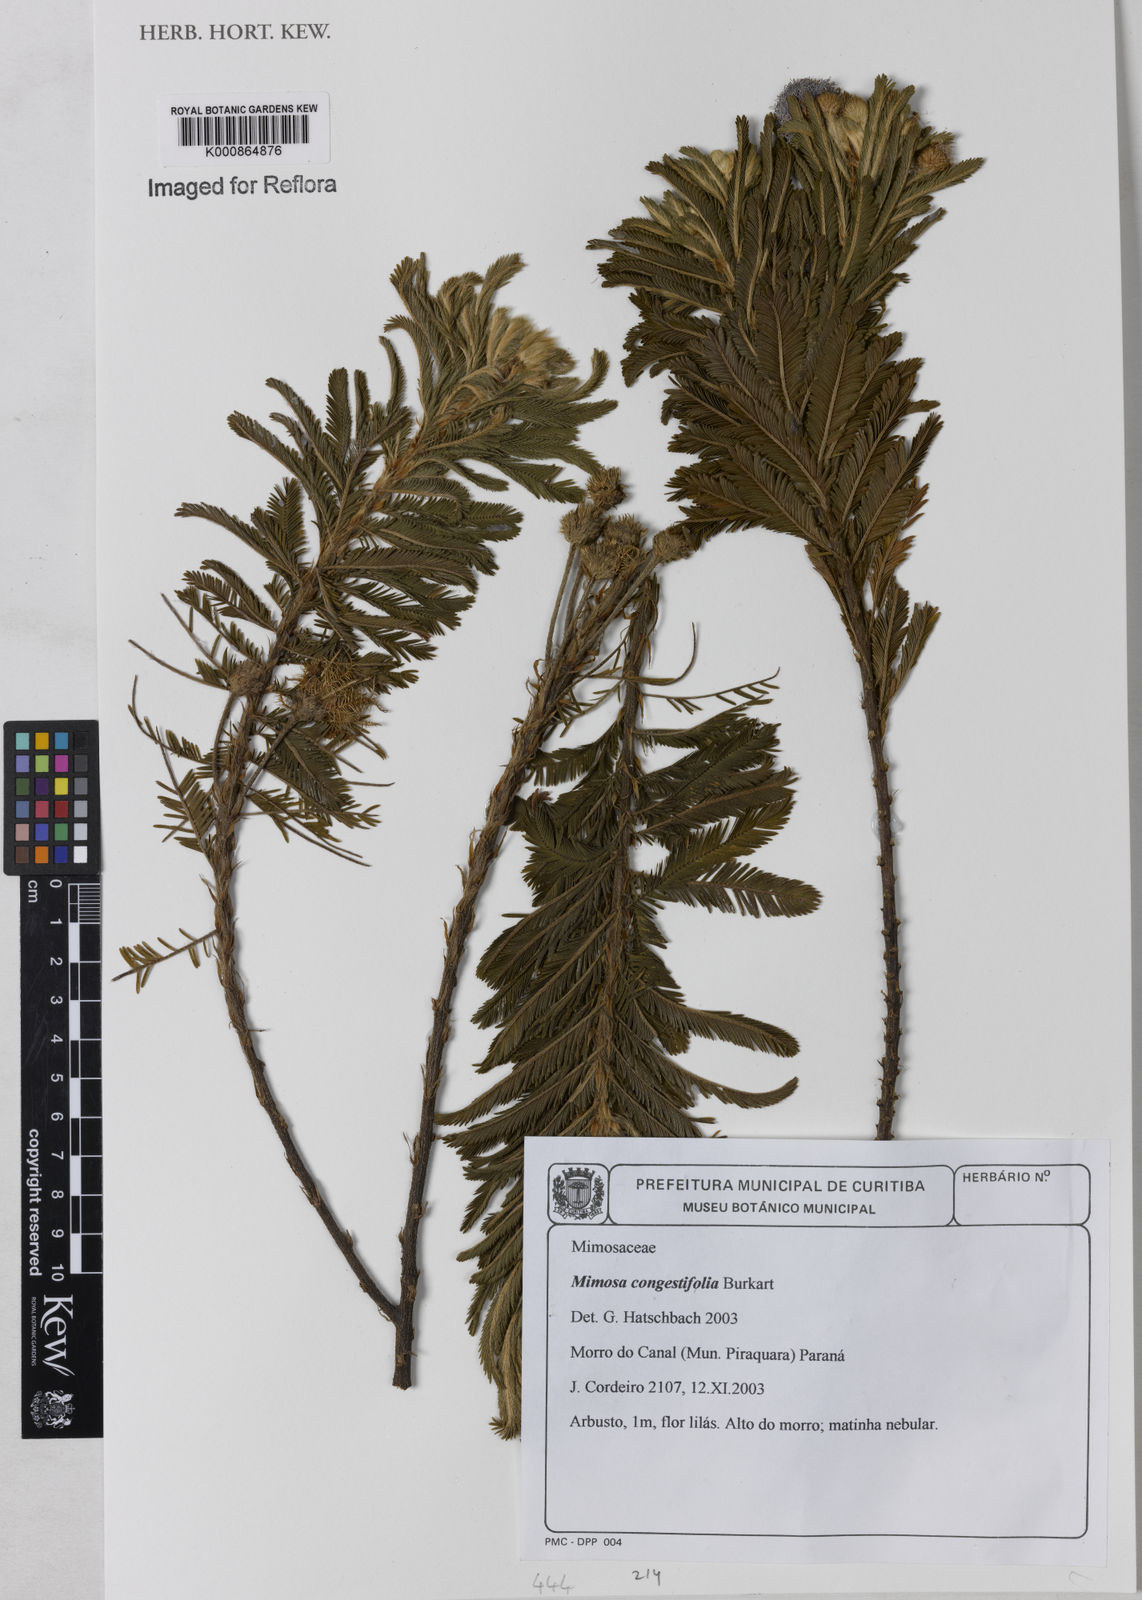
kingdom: Plantae
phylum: Tracheophyta
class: Magnoliopsida
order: Fabales
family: Fabaceae
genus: Mimosa
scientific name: Mimosa congestifolia
